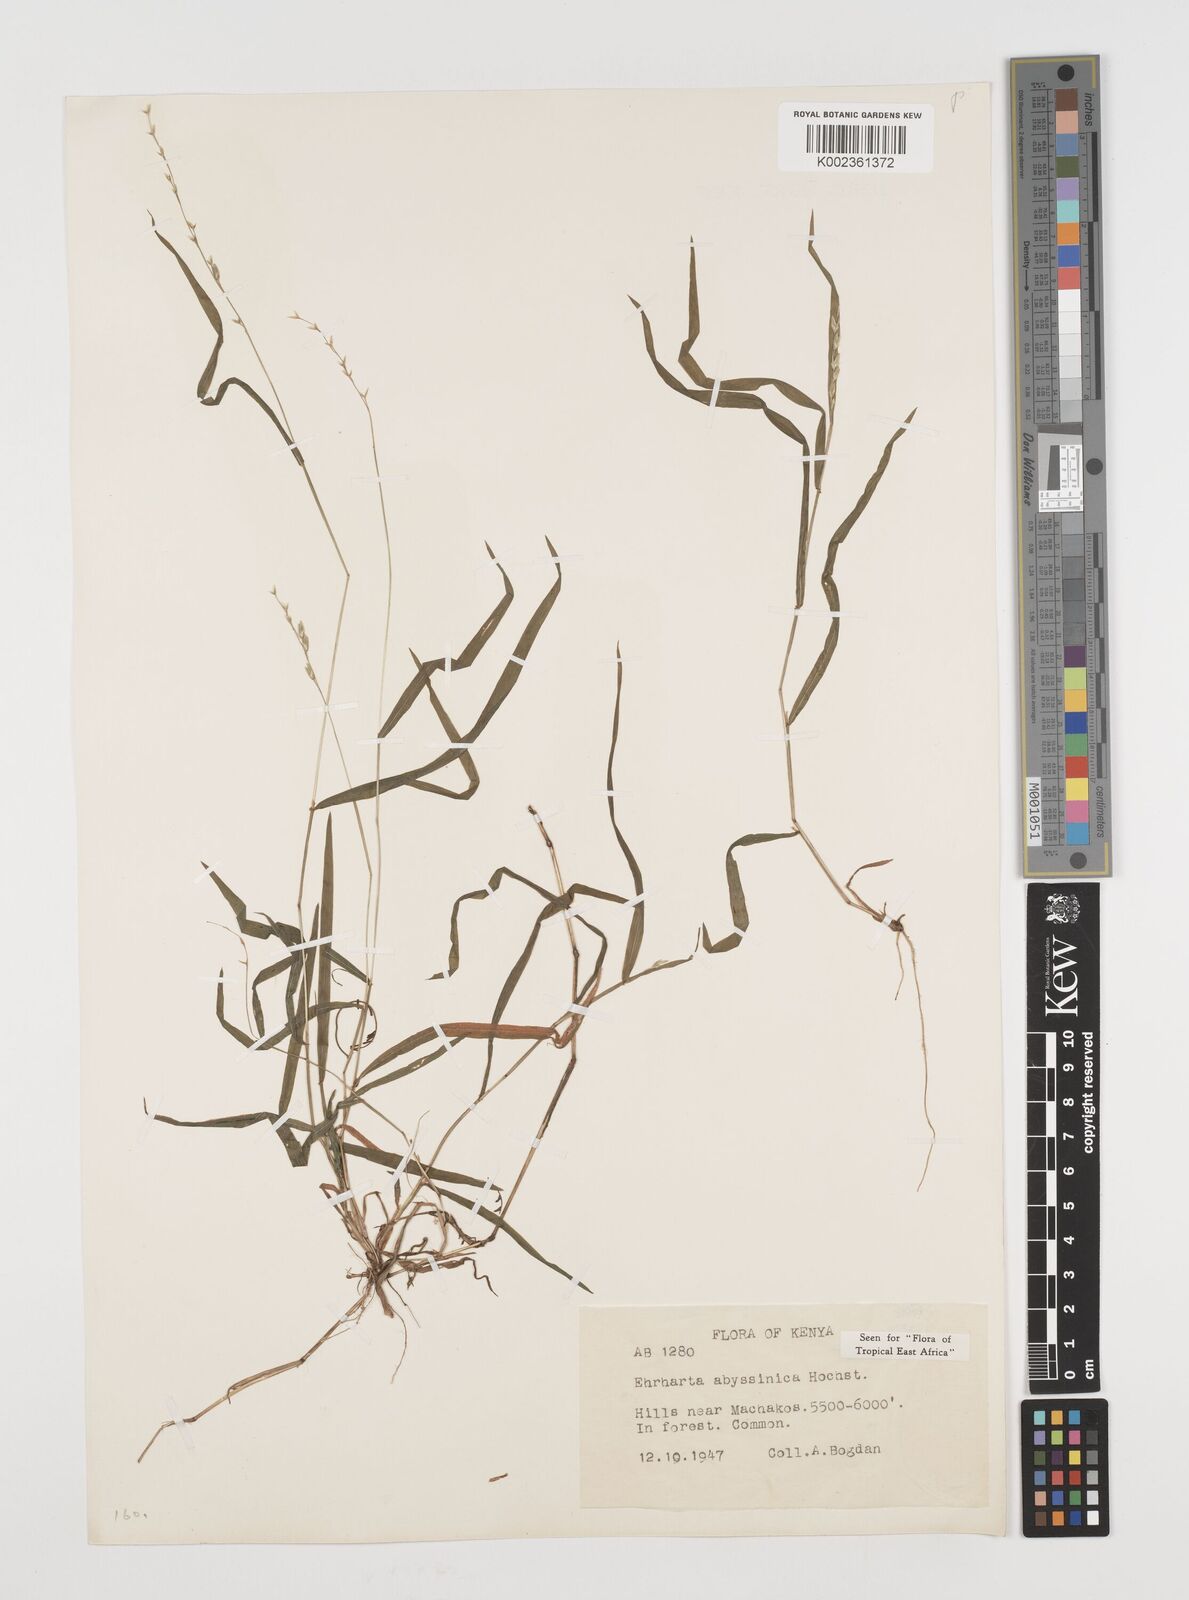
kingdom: Plantae
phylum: Tracheophyta
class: Liliopsida
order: Poales
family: Poaceae
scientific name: Poaceae
